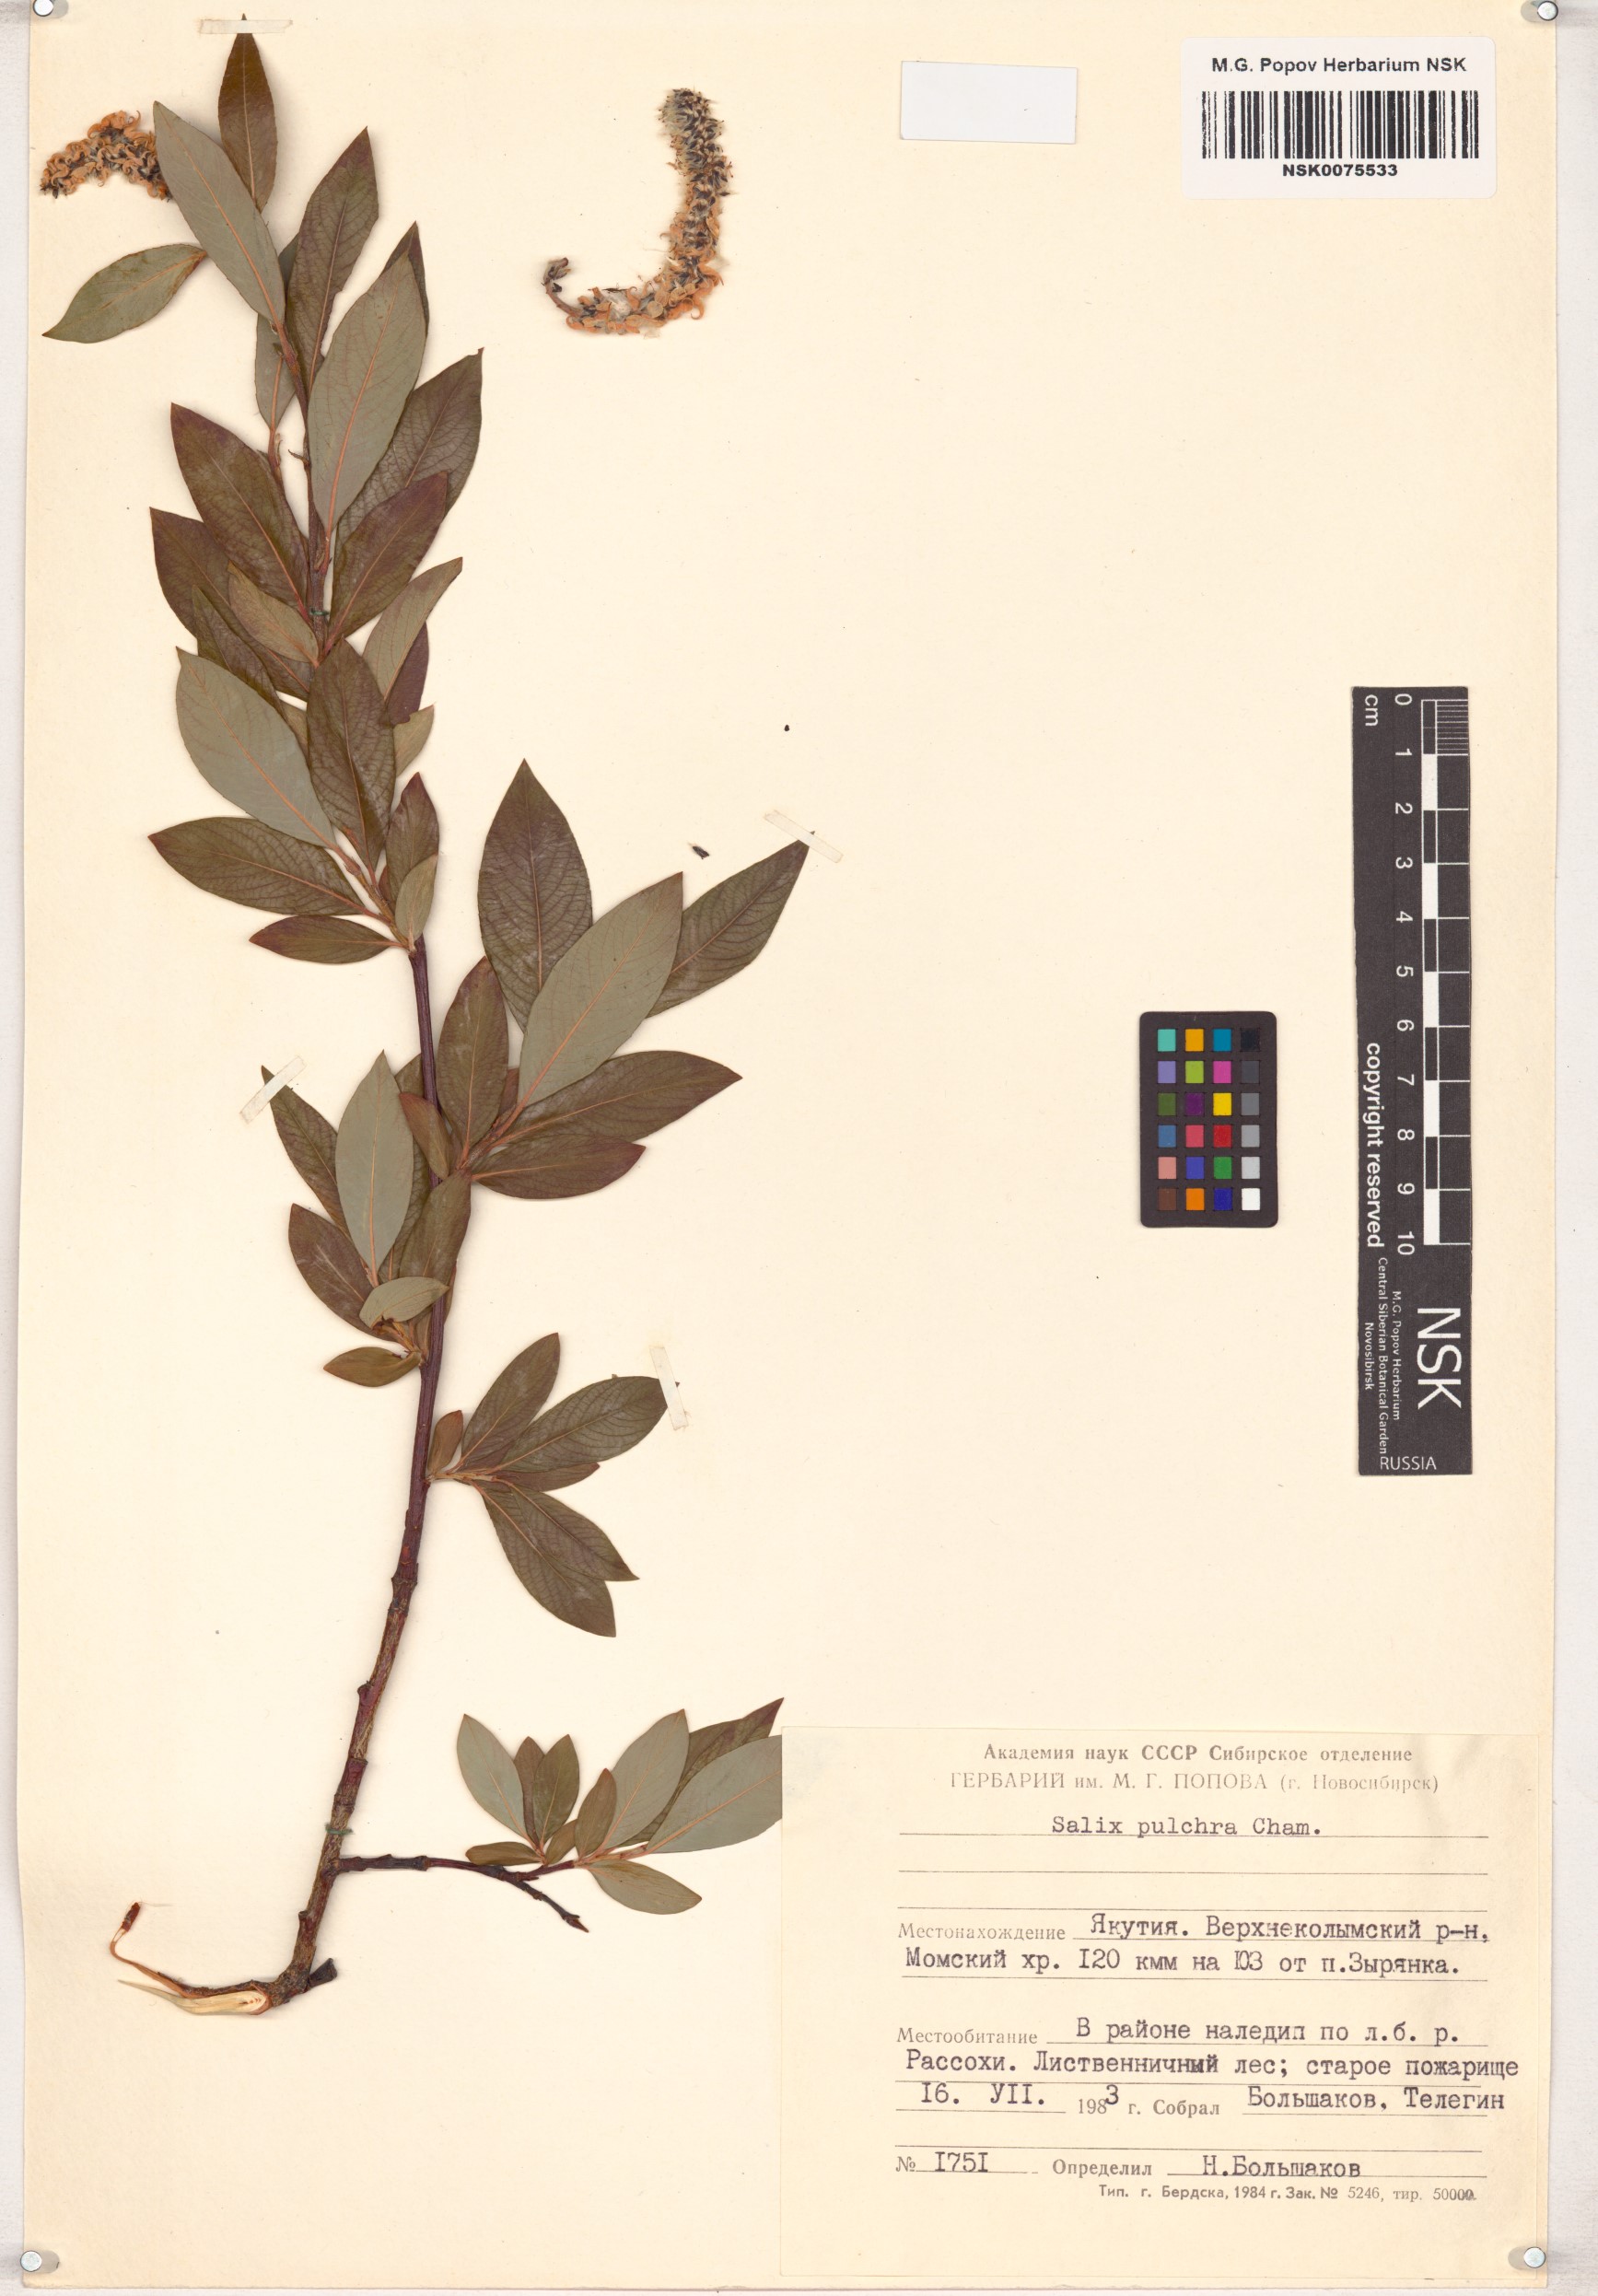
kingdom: Plantae
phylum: Tracheophyta
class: Magnoliopsida
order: Malpighiales
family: Salicaceae
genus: Salix
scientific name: Salix pulchra
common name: Diamond-leaved willow
